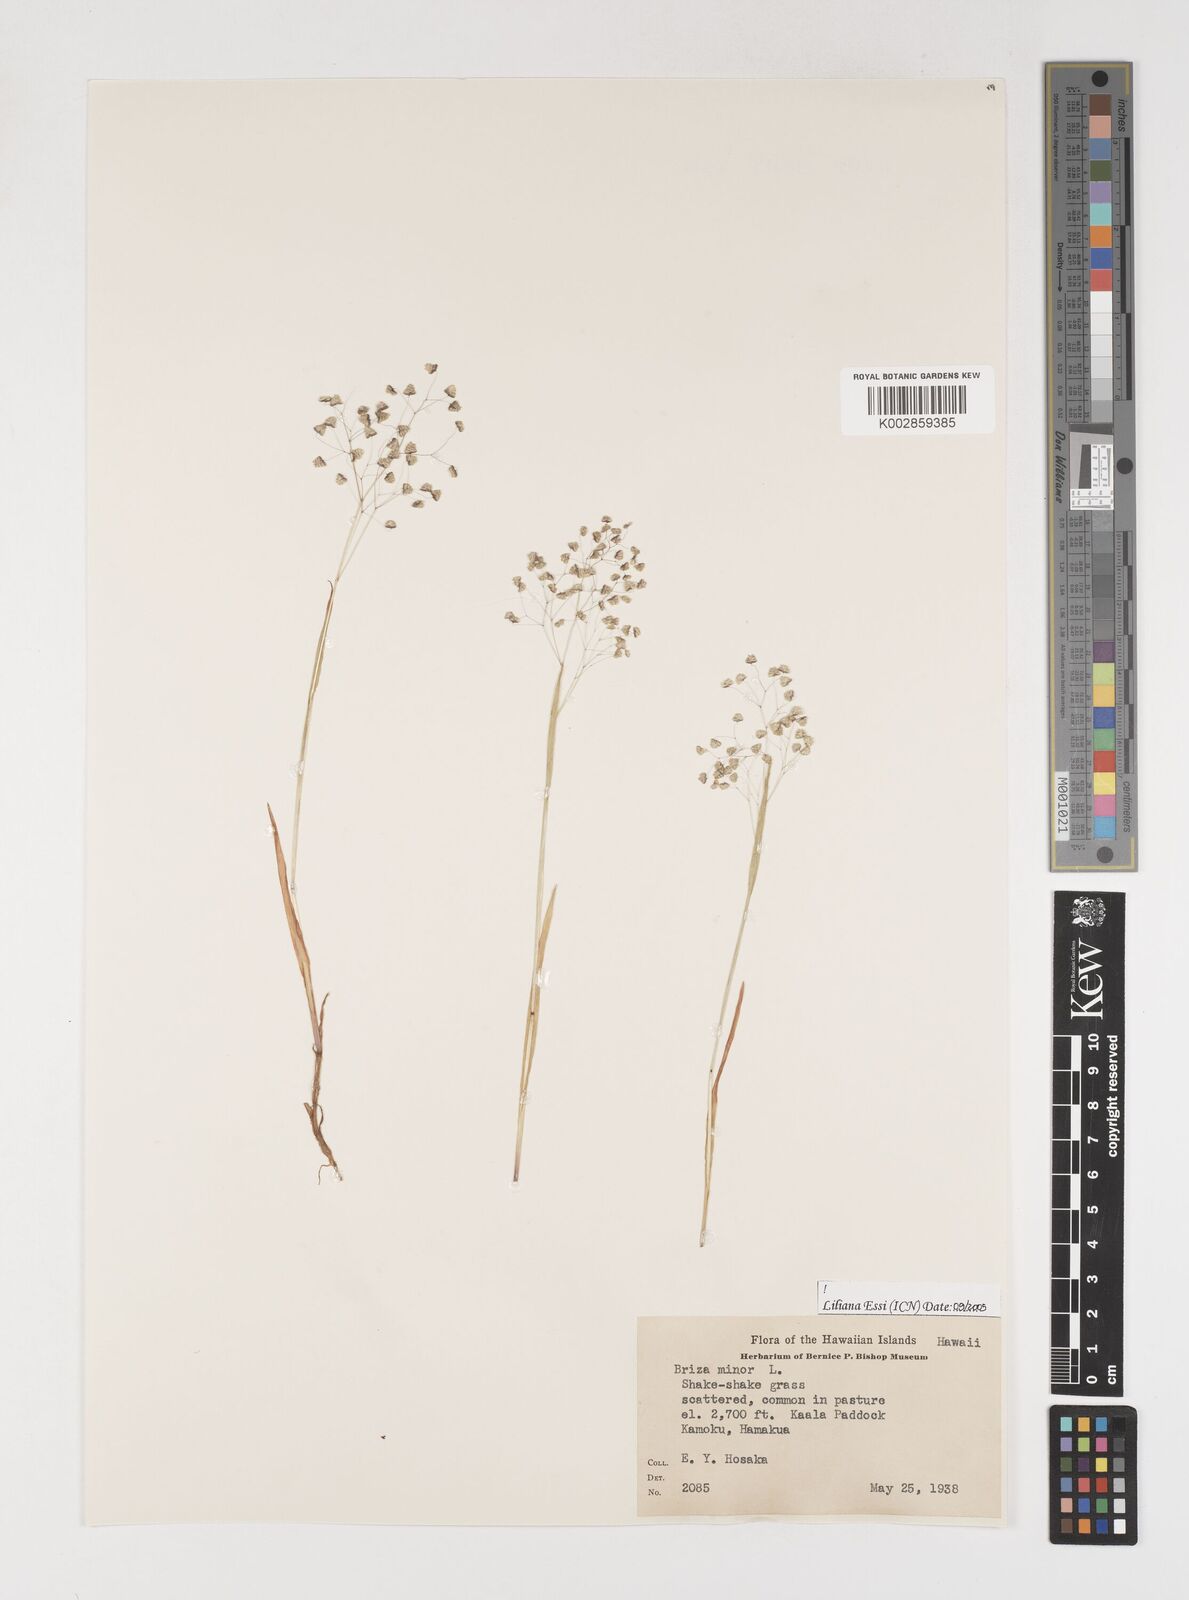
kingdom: Plantae
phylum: Tracheophyta
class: Liliopsida
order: Poales
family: Poaceae
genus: Briza
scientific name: Briza minor
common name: Lesser quaking-grass
